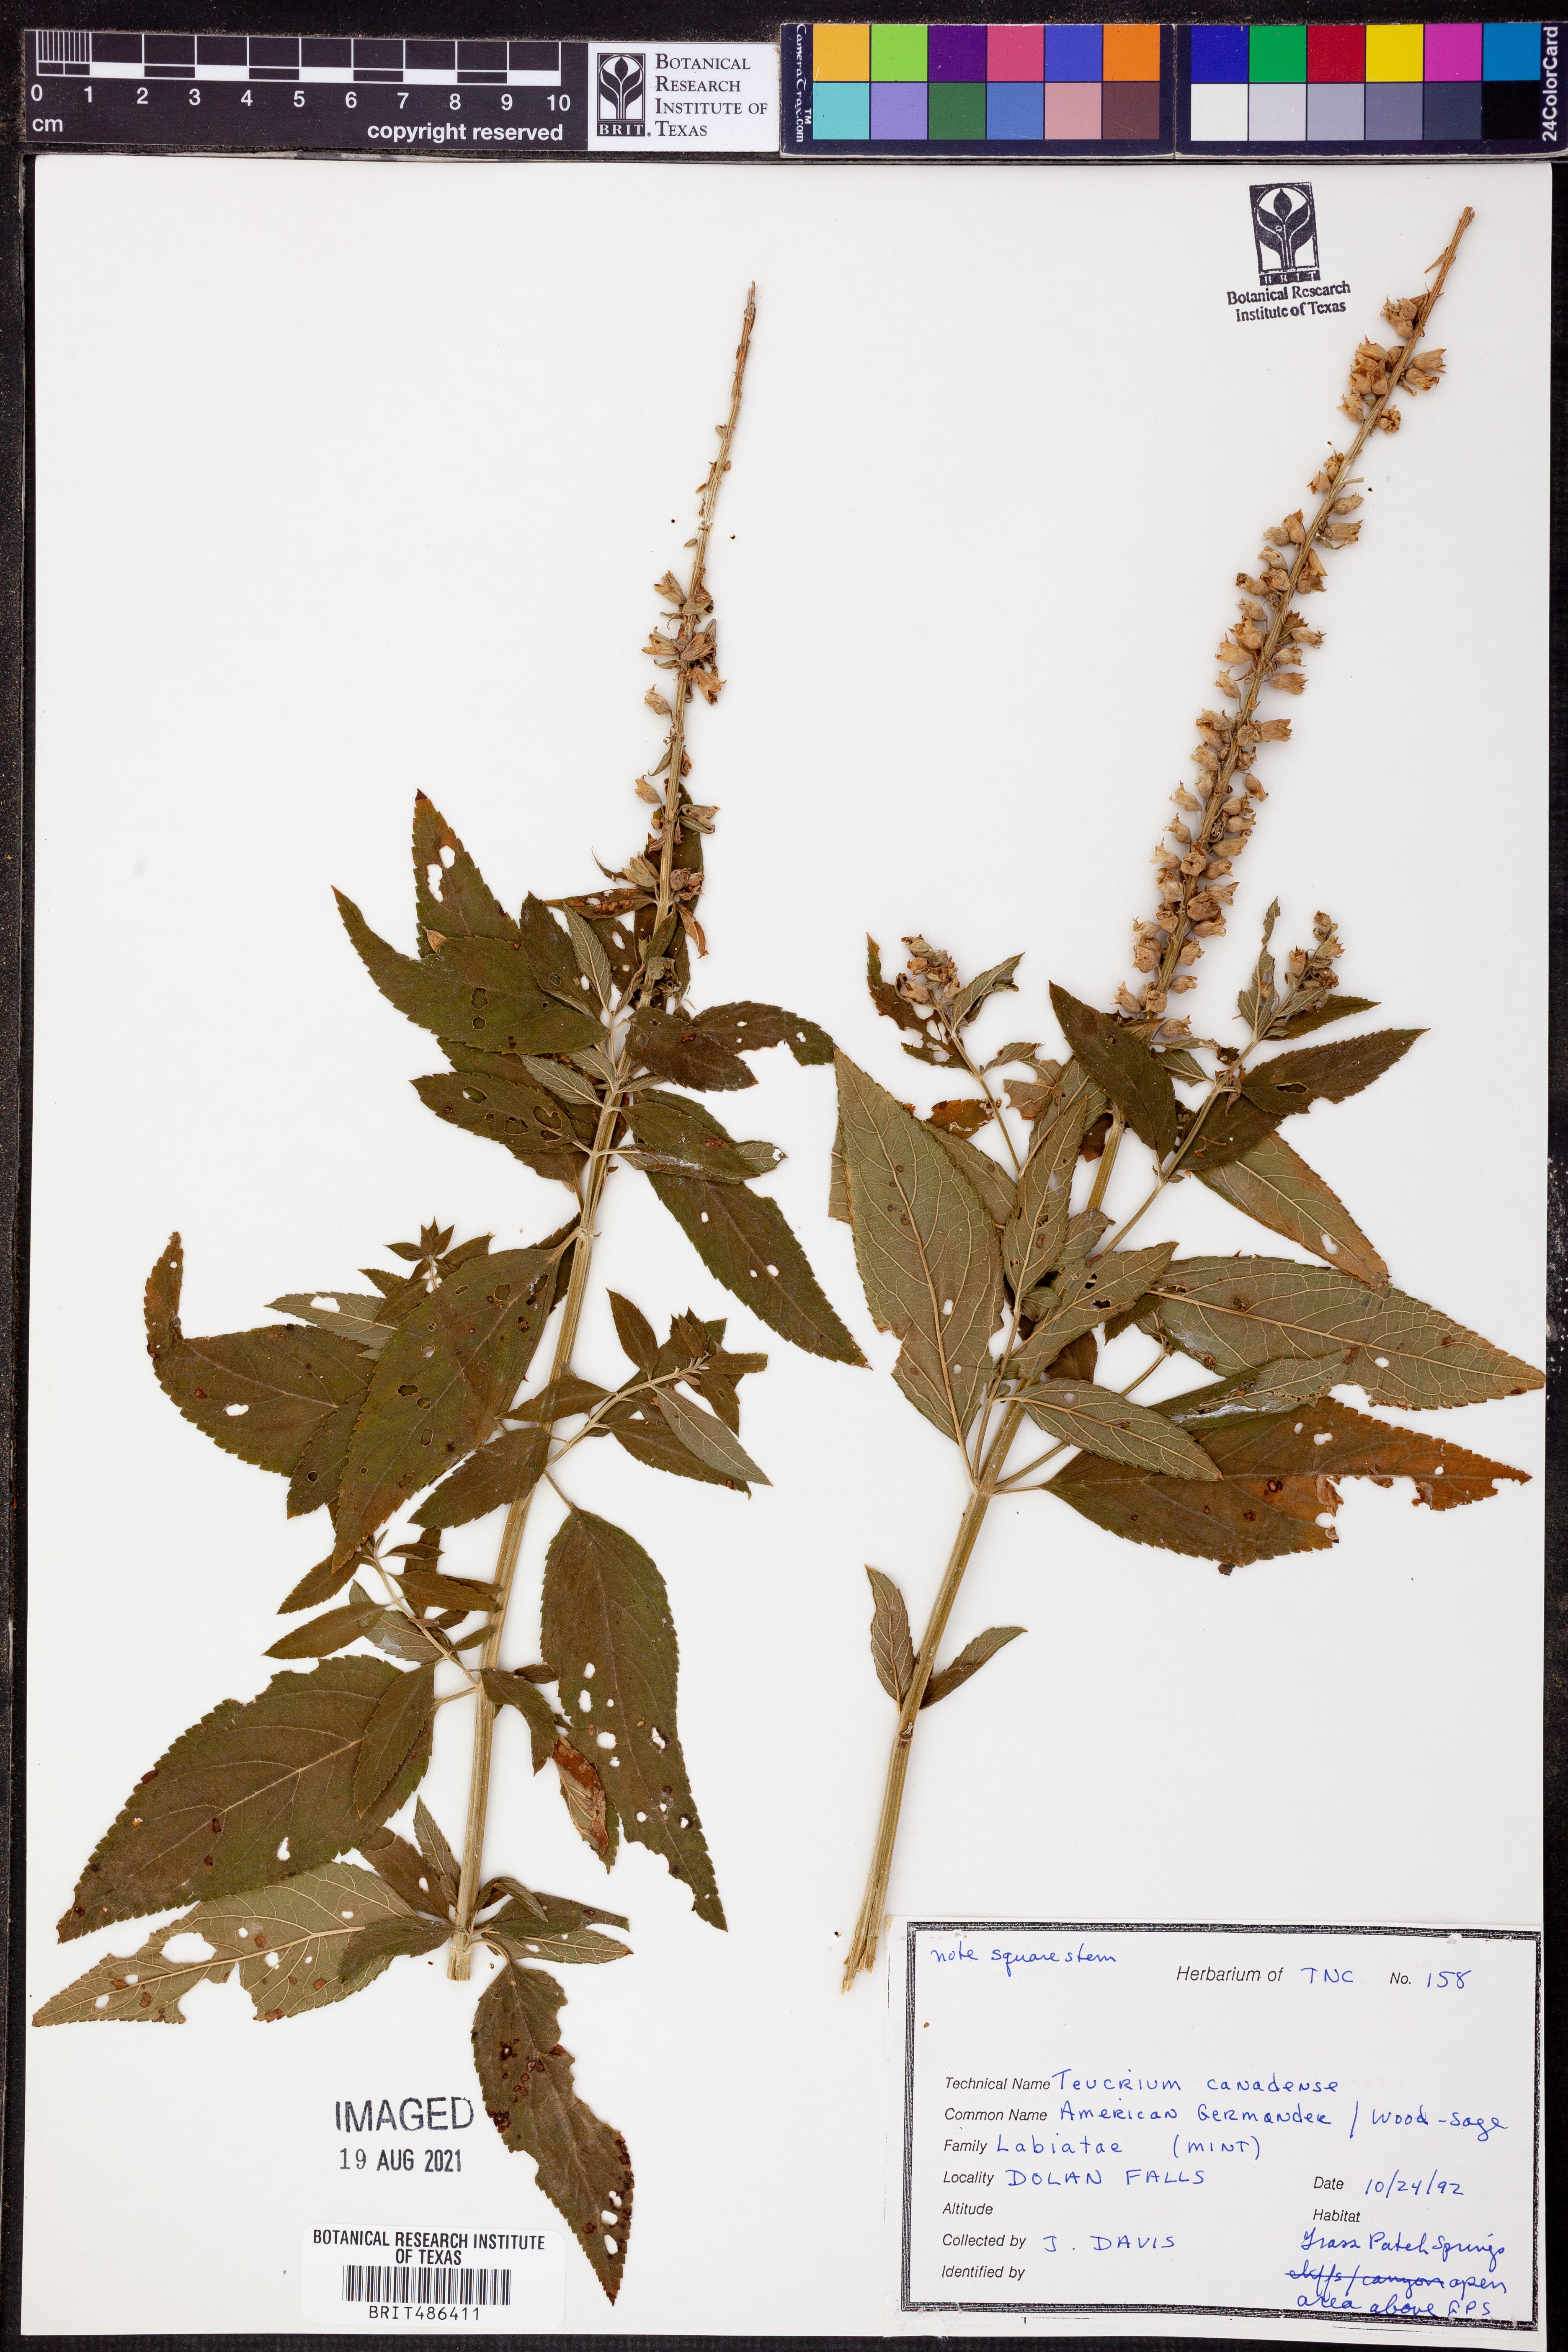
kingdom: Plantae
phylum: Tracheophyta
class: Magnoliopsida
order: Lamiales
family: Lamiaceae
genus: Teucrium
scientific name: Teucrium canadense
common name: American germander
